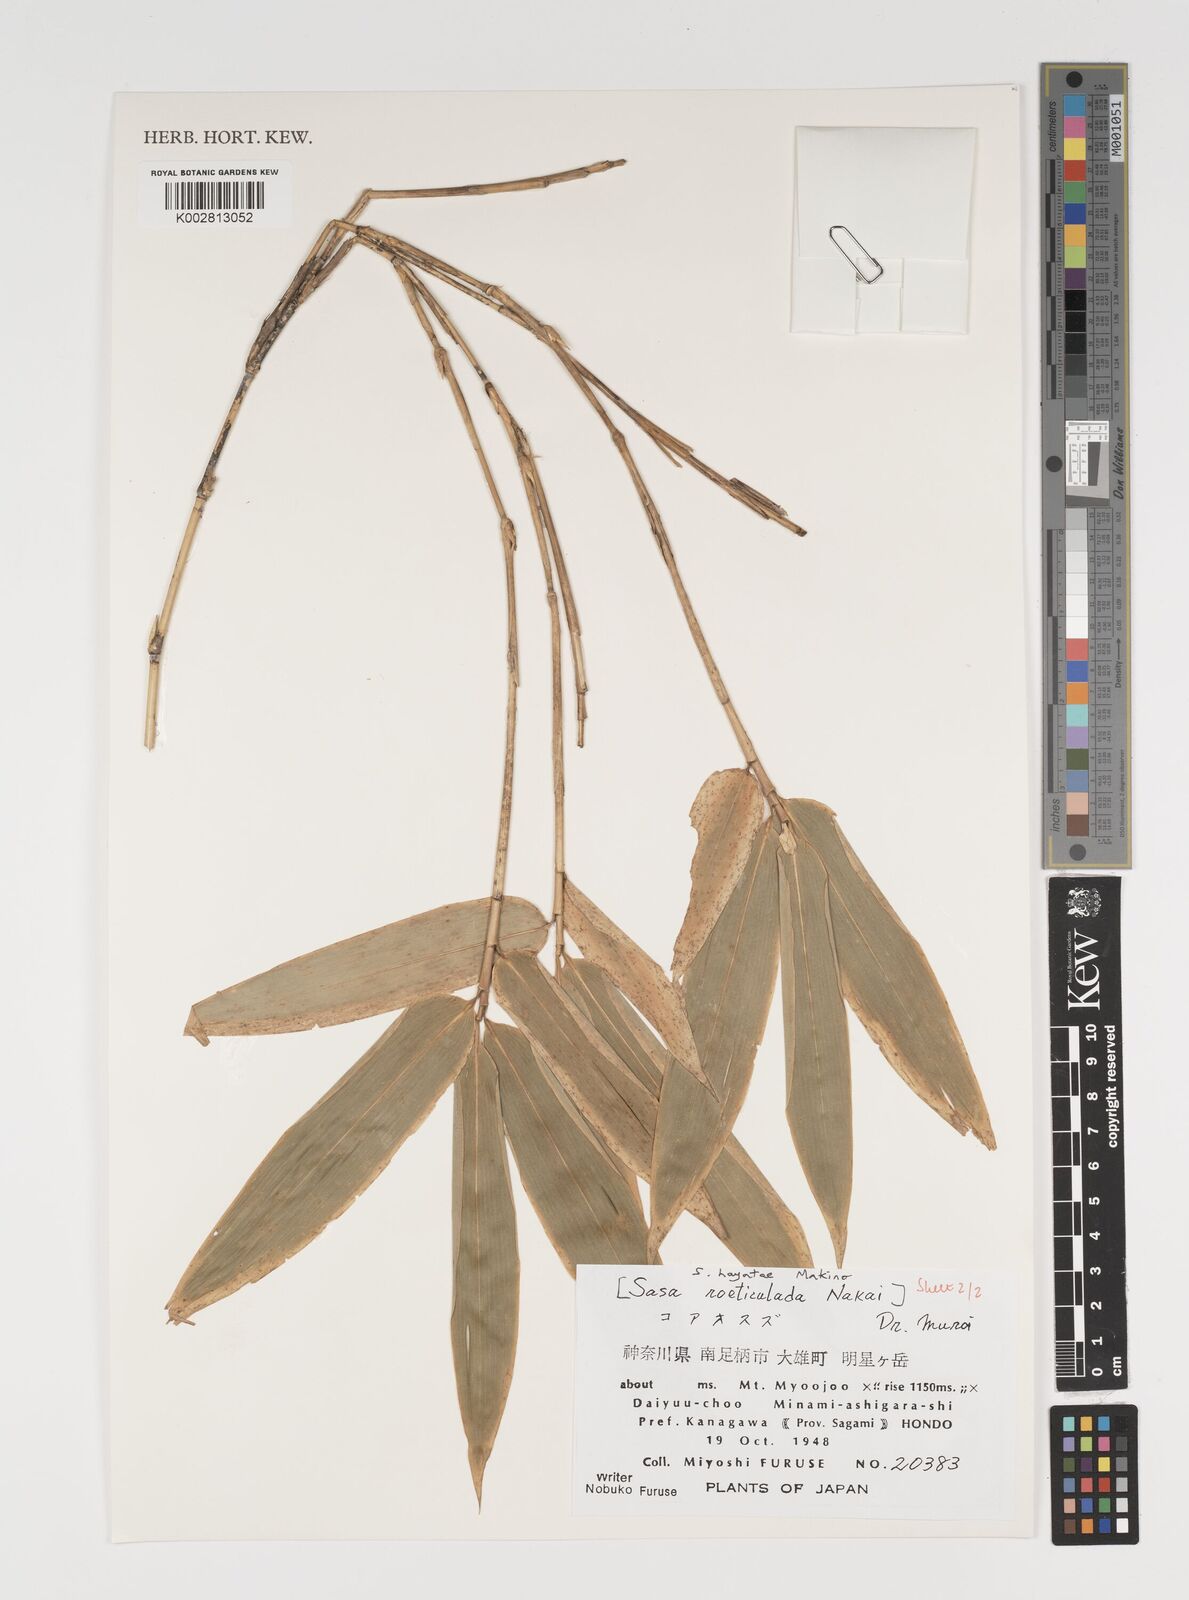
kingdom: Plantae
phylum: Tracheophyta
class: Liliopsida
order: Poales
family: Poaceae
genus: Sasa
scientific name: Sasa hayatae
